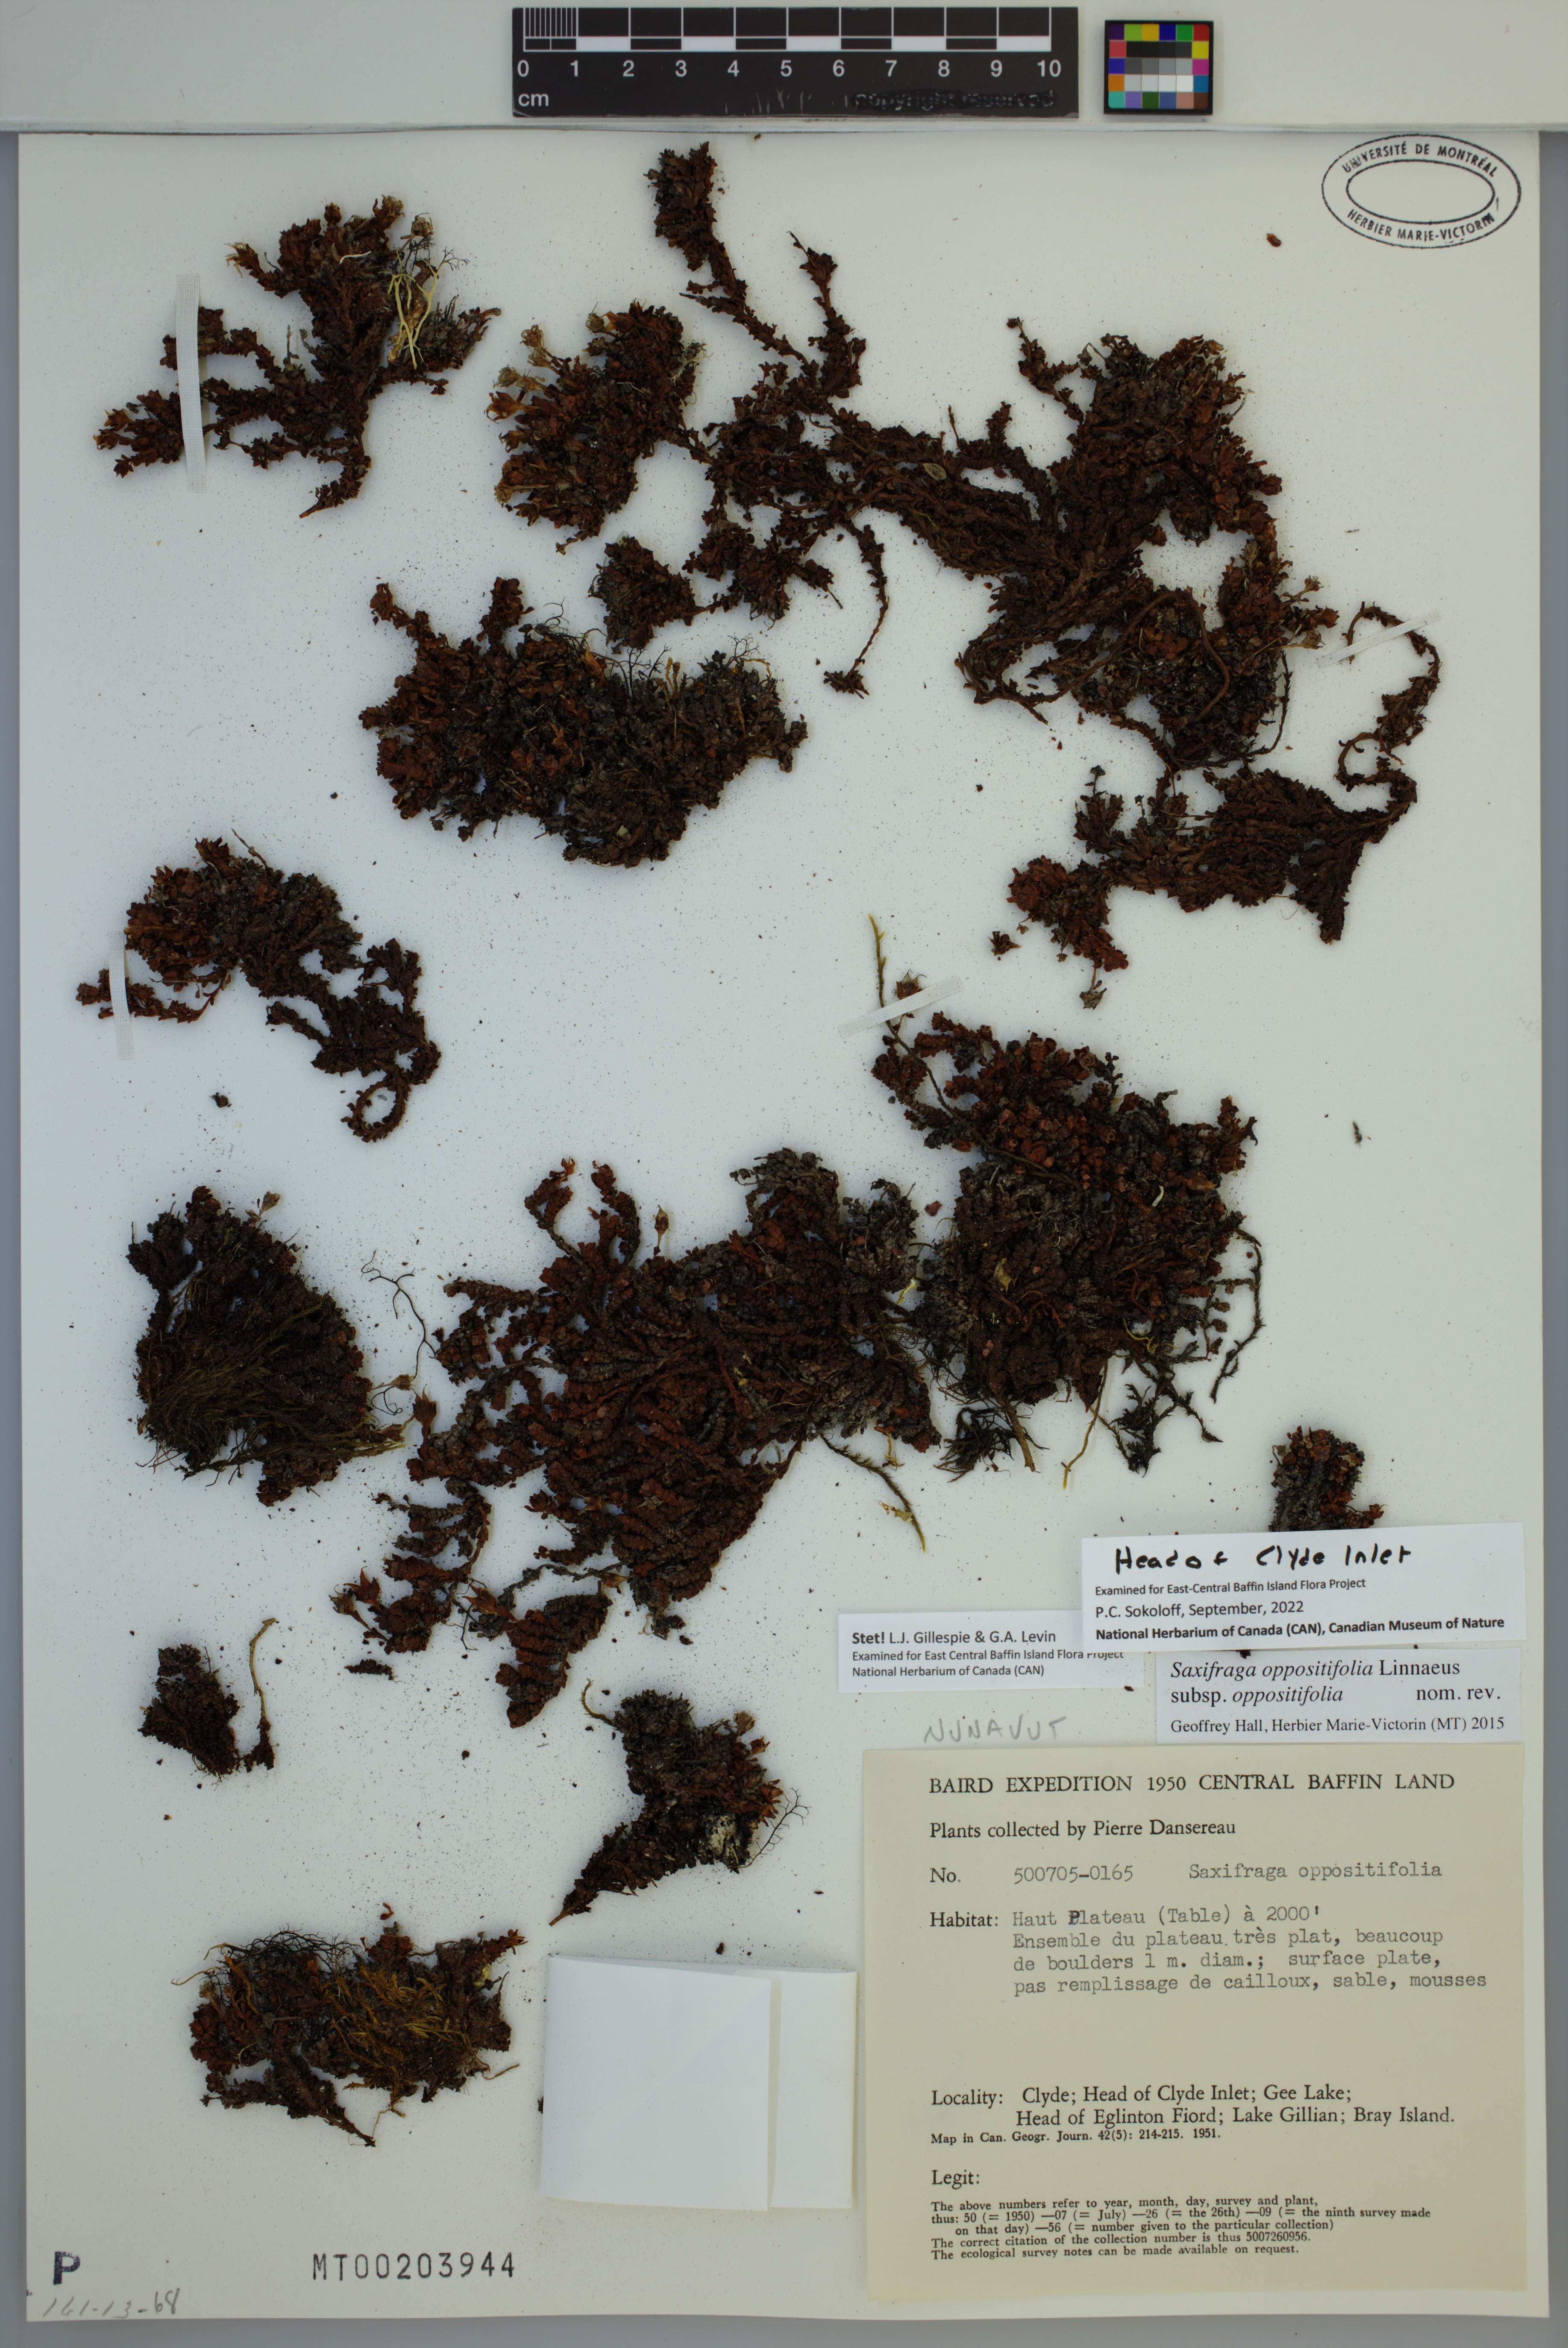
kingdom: Plantae
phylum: Tracheophyta
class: Magnoliopsida
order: Saxifragales
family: Saxifragaceae
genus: Saxifraga
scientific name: Saxifraga oppositifolia
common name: Purple saxifrage
